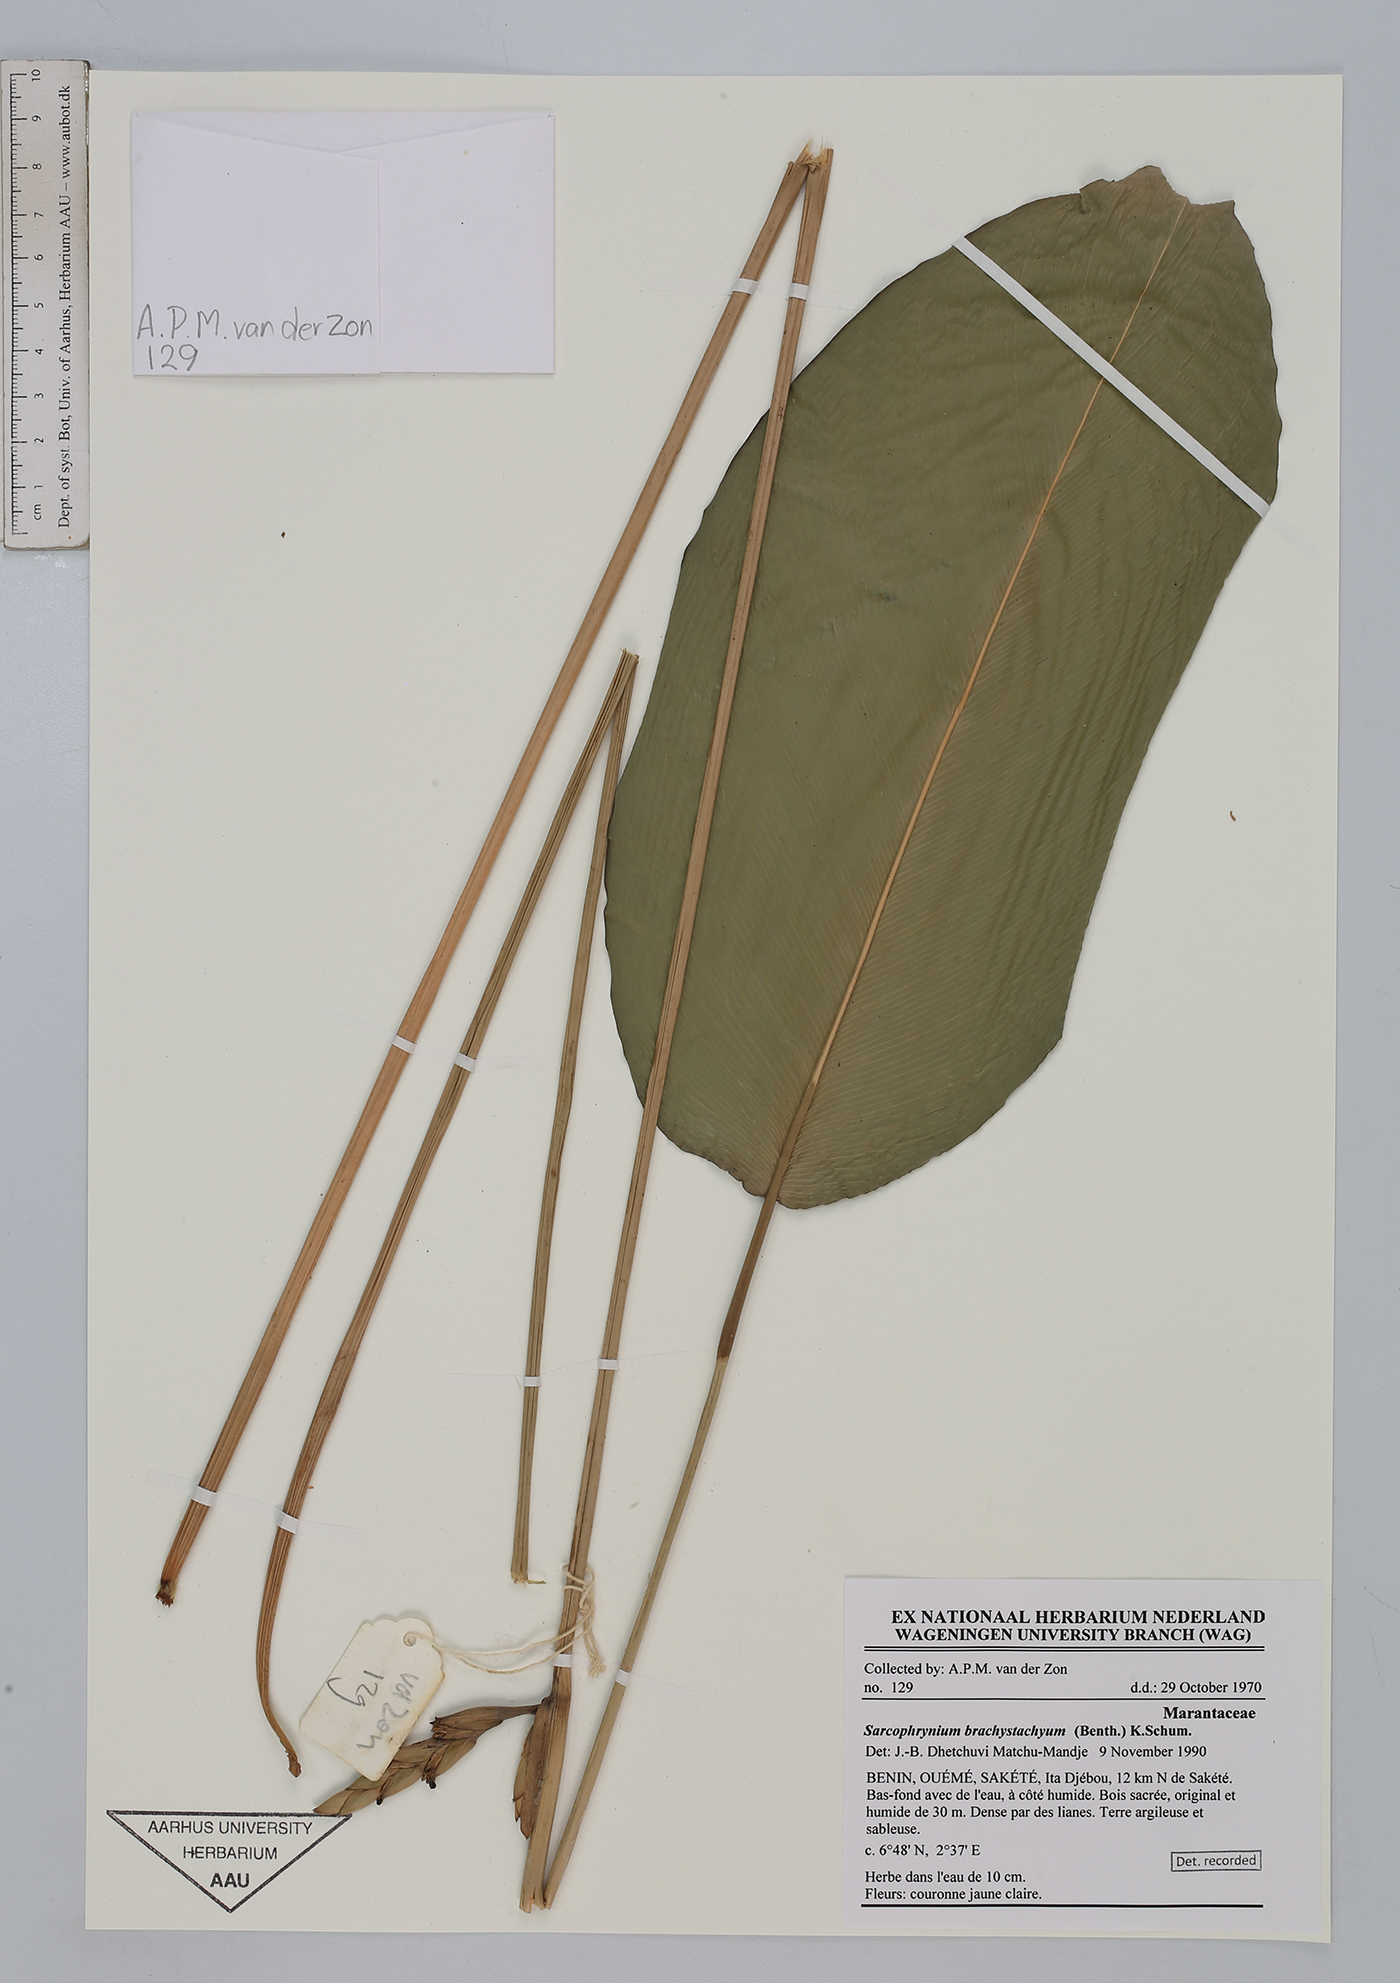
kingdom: Plantae
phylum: Tracheophyta
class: Liliopsida
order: Zingiberales
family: Marantaceae
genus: Sarcophrynium
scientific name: Sarcophrynium brachystachyum
